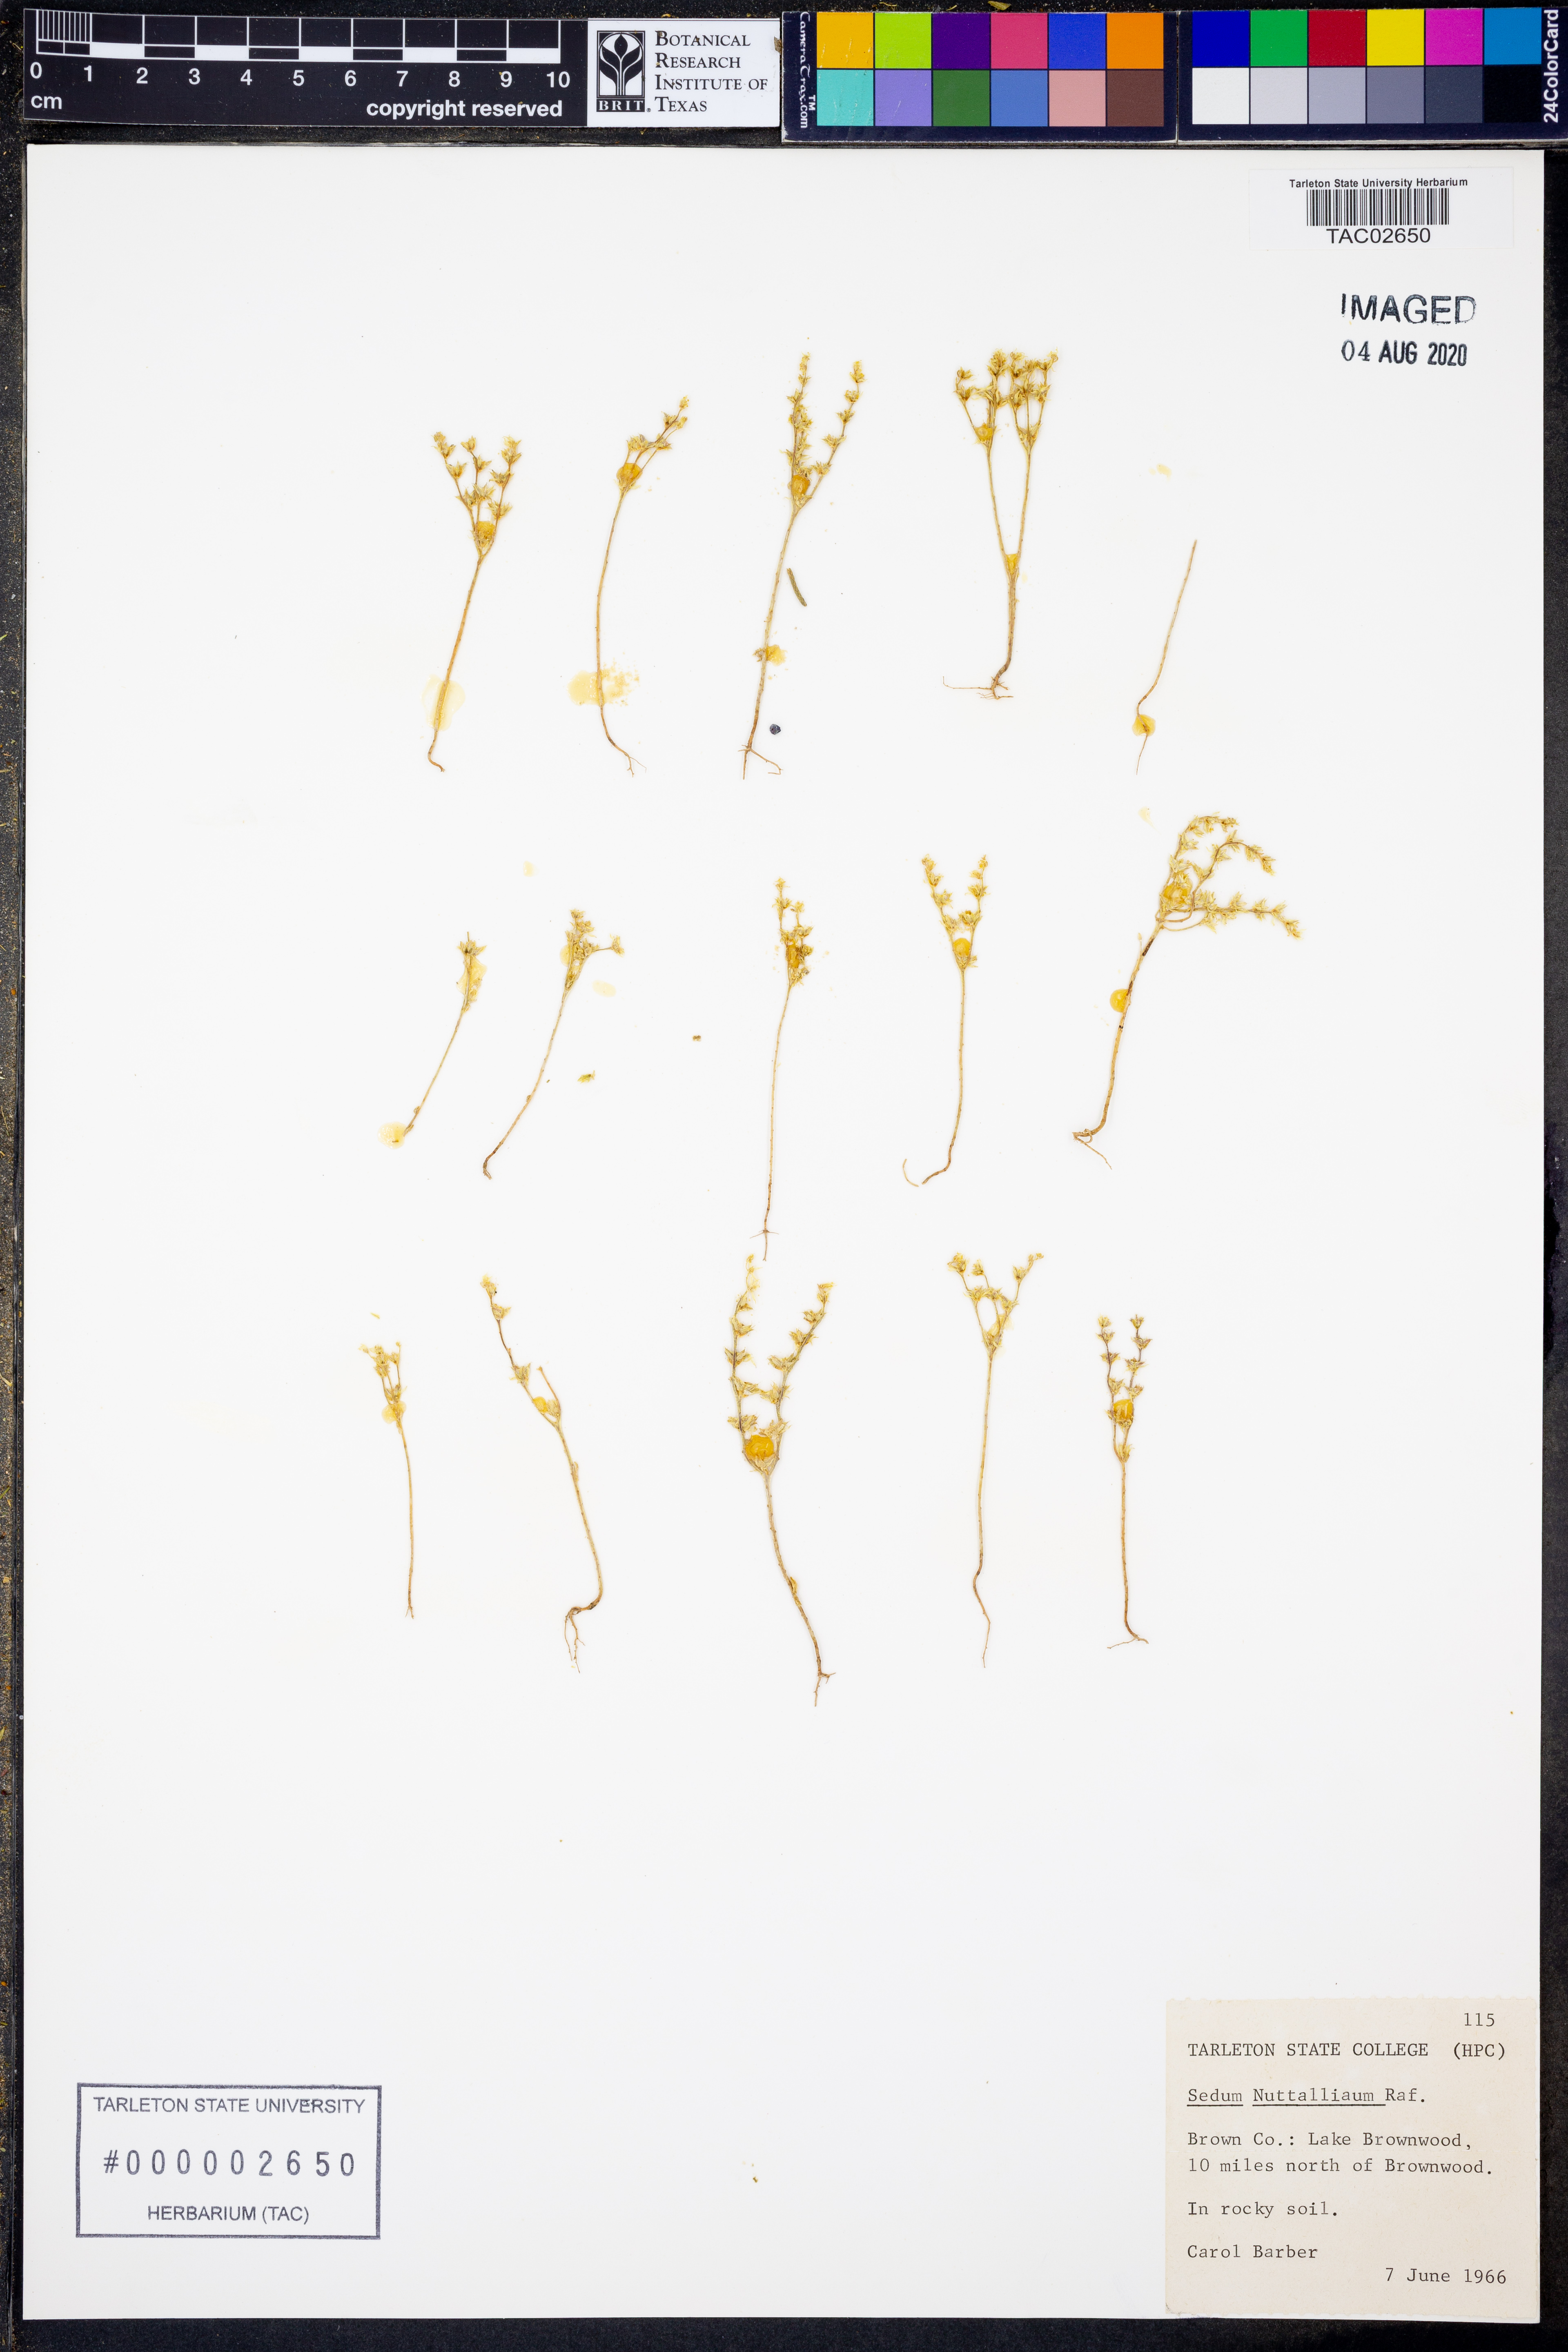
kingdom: Plantae
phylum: Tracheophyta
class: Magnoliopsida
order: Saxifragales
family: Crassulaceae
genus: Sedum
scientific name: Sedum nuttallii
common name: Yellow stonecrop
